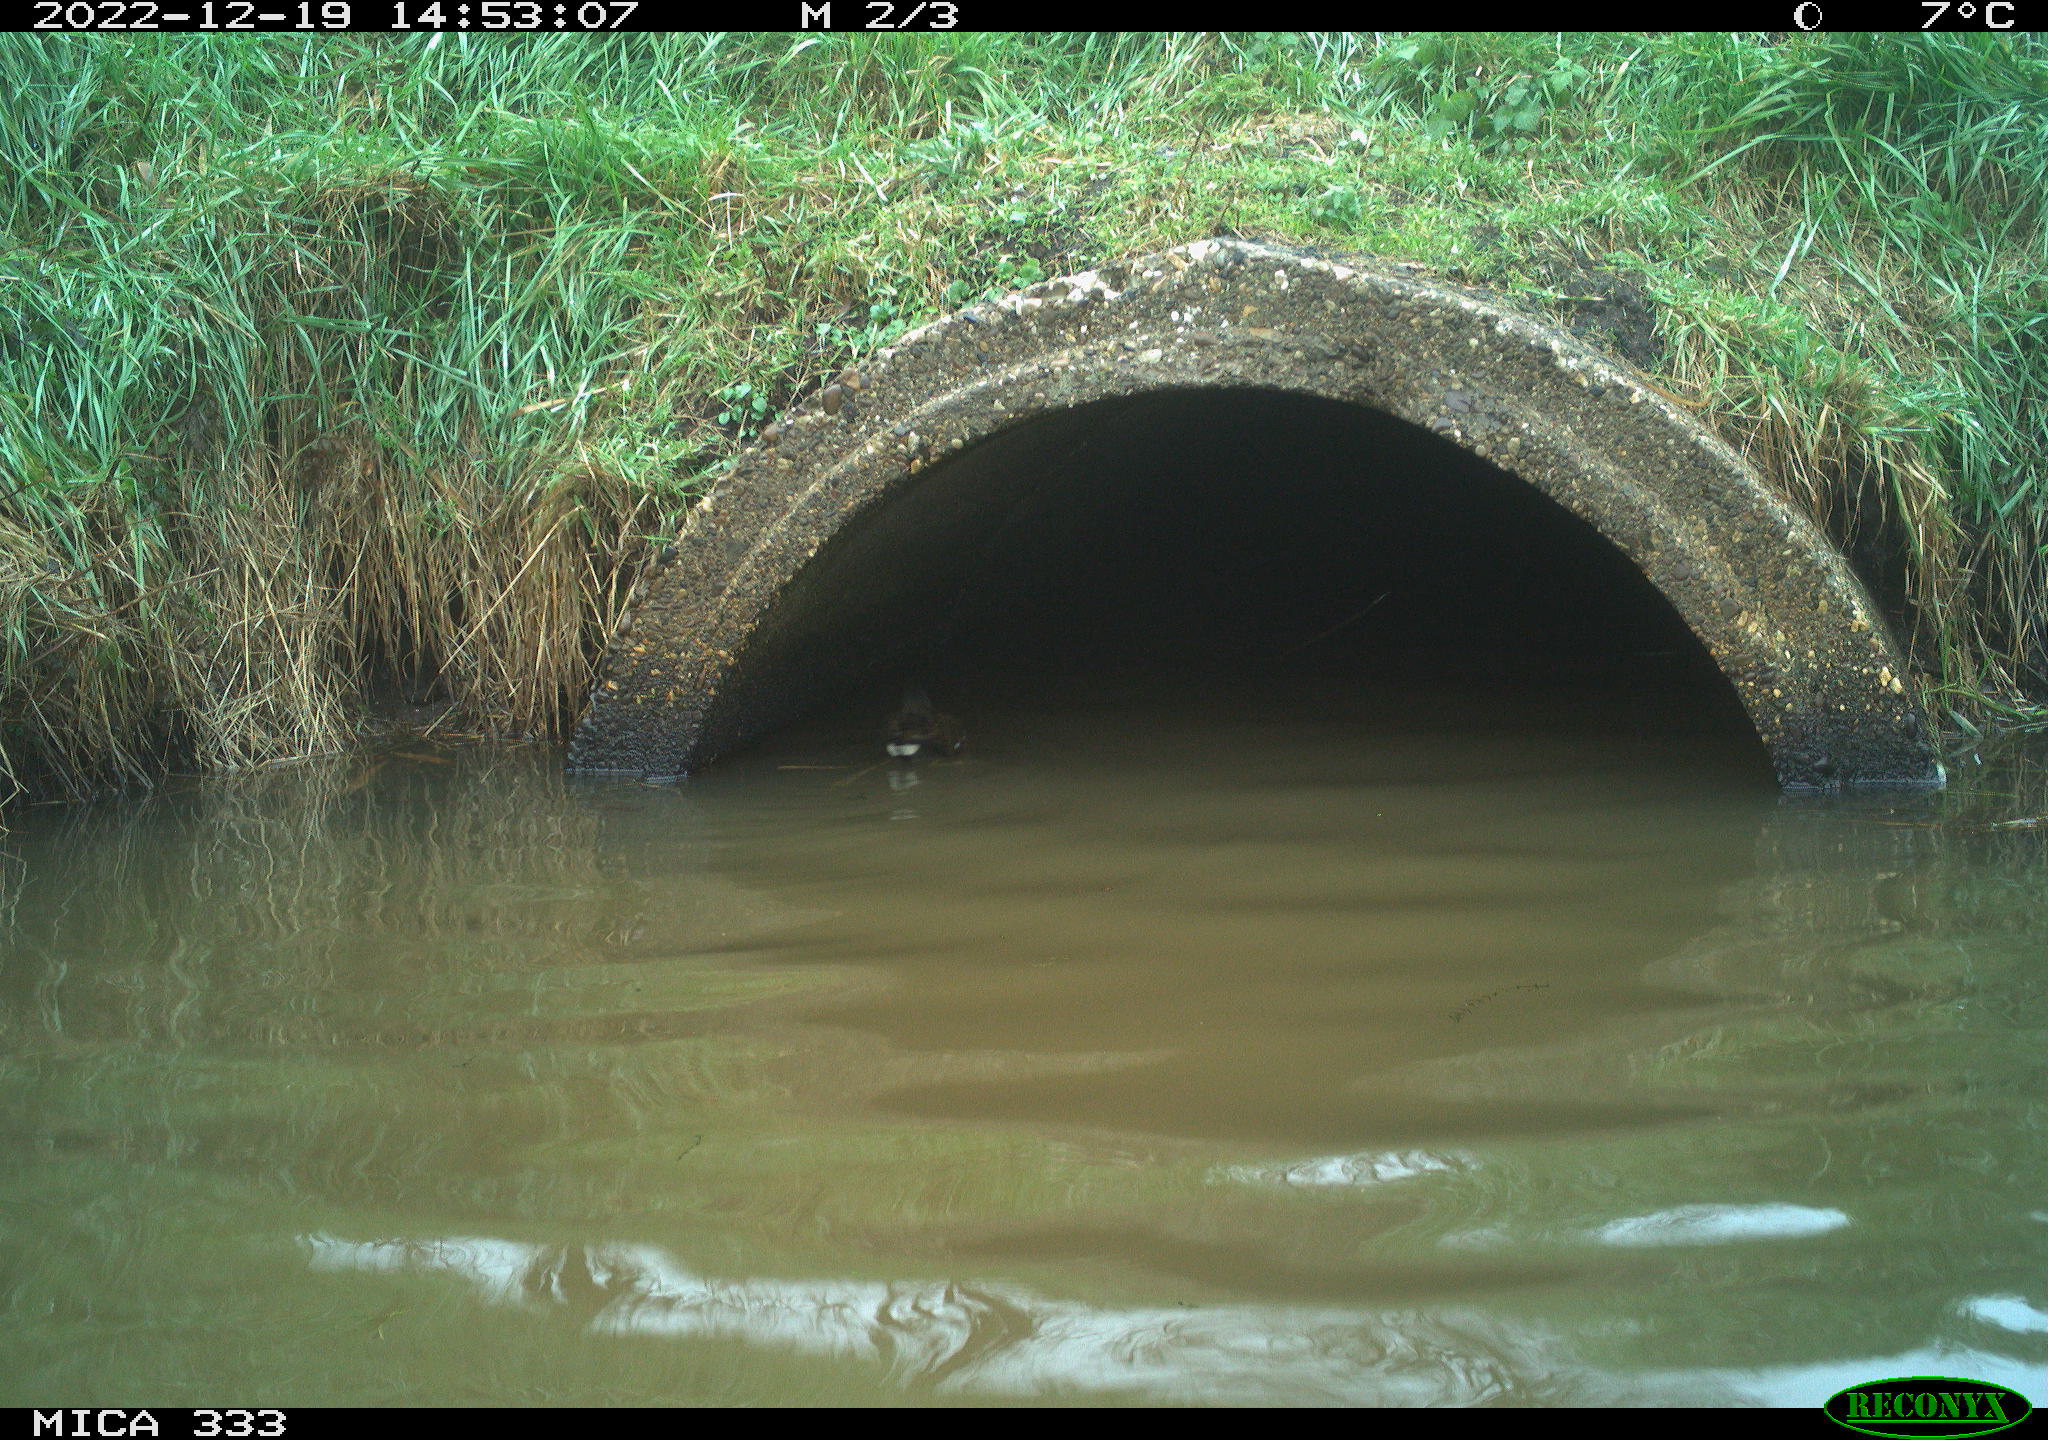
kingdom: Animalia
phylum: Chordata
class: Aves
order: Gruiformes
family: Rallidae
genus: Gallinula
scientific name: Gallinula chloropus
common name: Common moorhen
